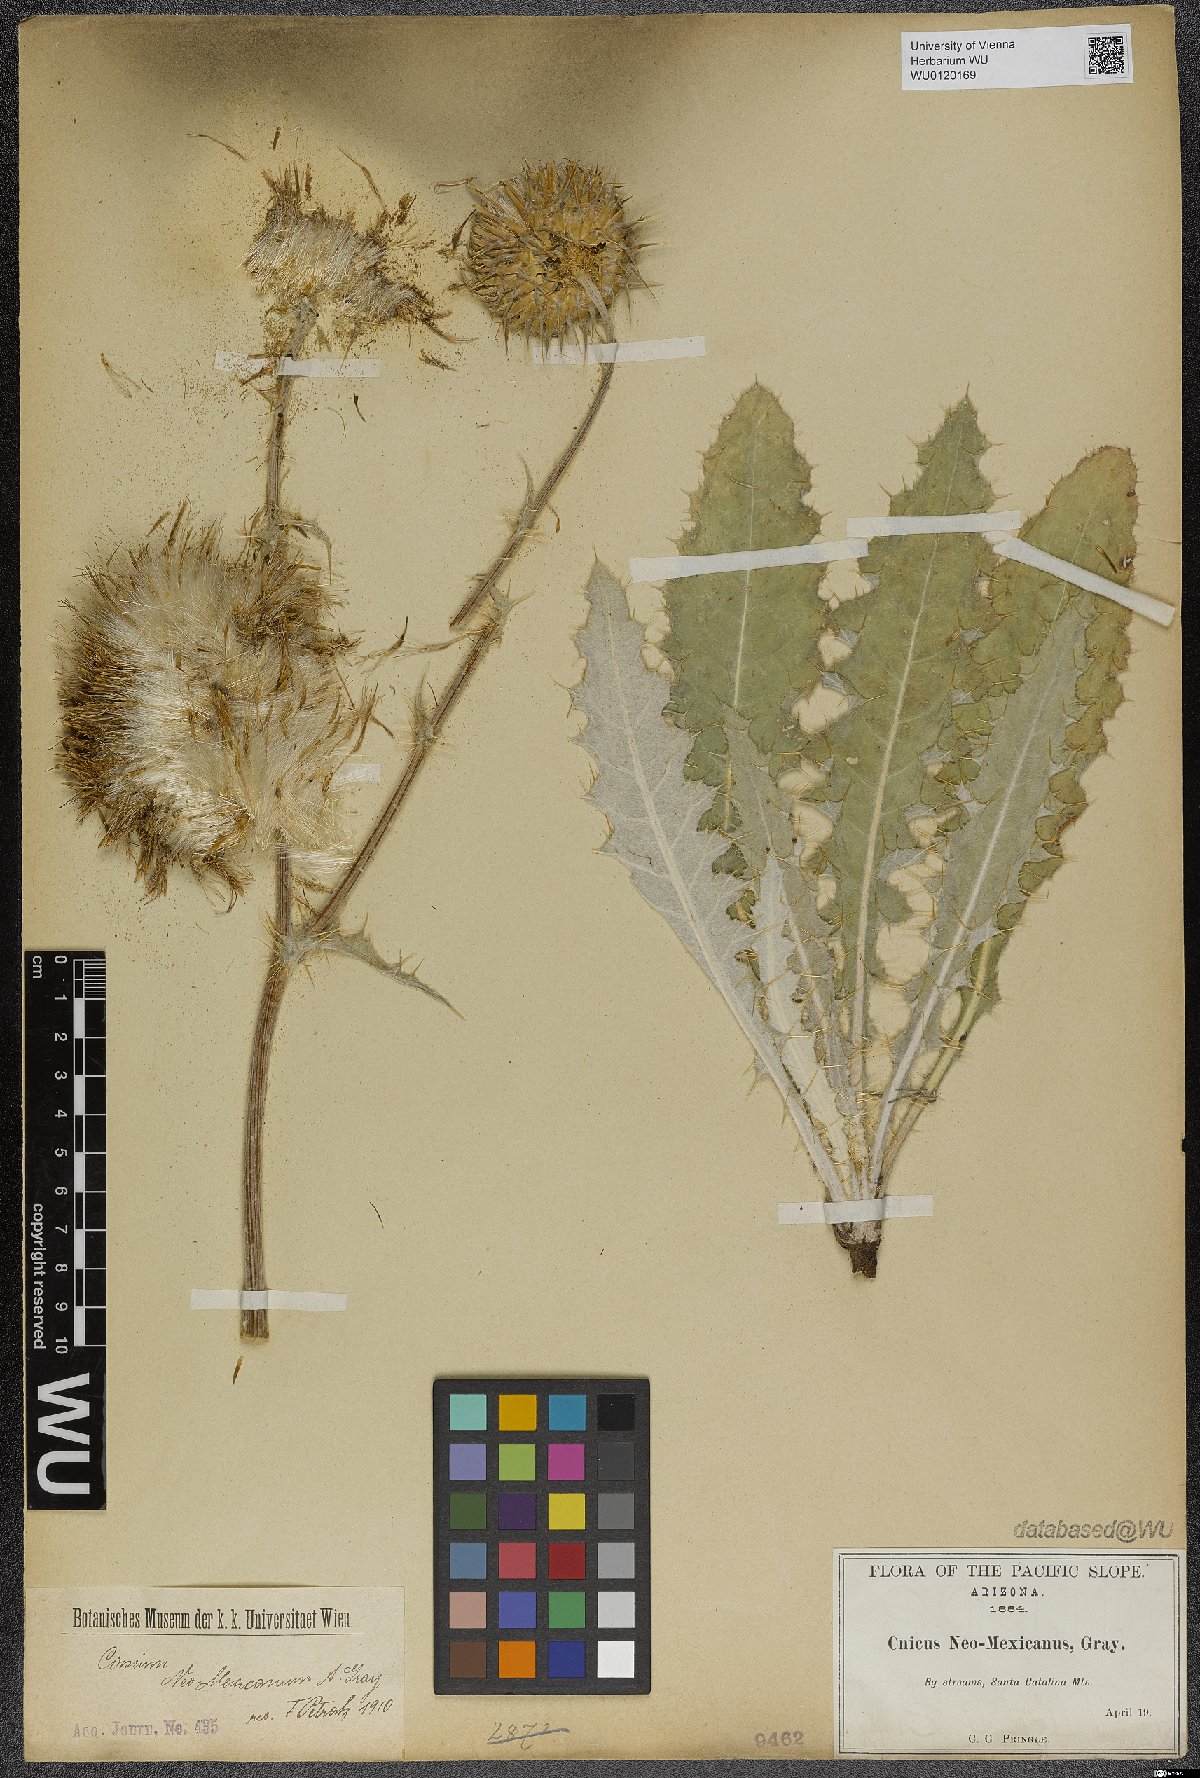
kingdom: Plantae
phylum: Tracheophyta
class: Magnoliopsida
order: Asterales
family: Asteraceae
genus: Cirsium
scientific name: Cirsium neomexicanum
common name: New mexico thistle
